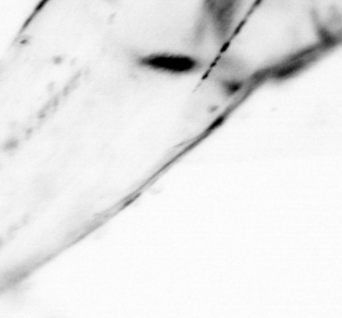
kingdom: Animalia
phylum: Chaetognatha
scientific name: Chaetognatha
